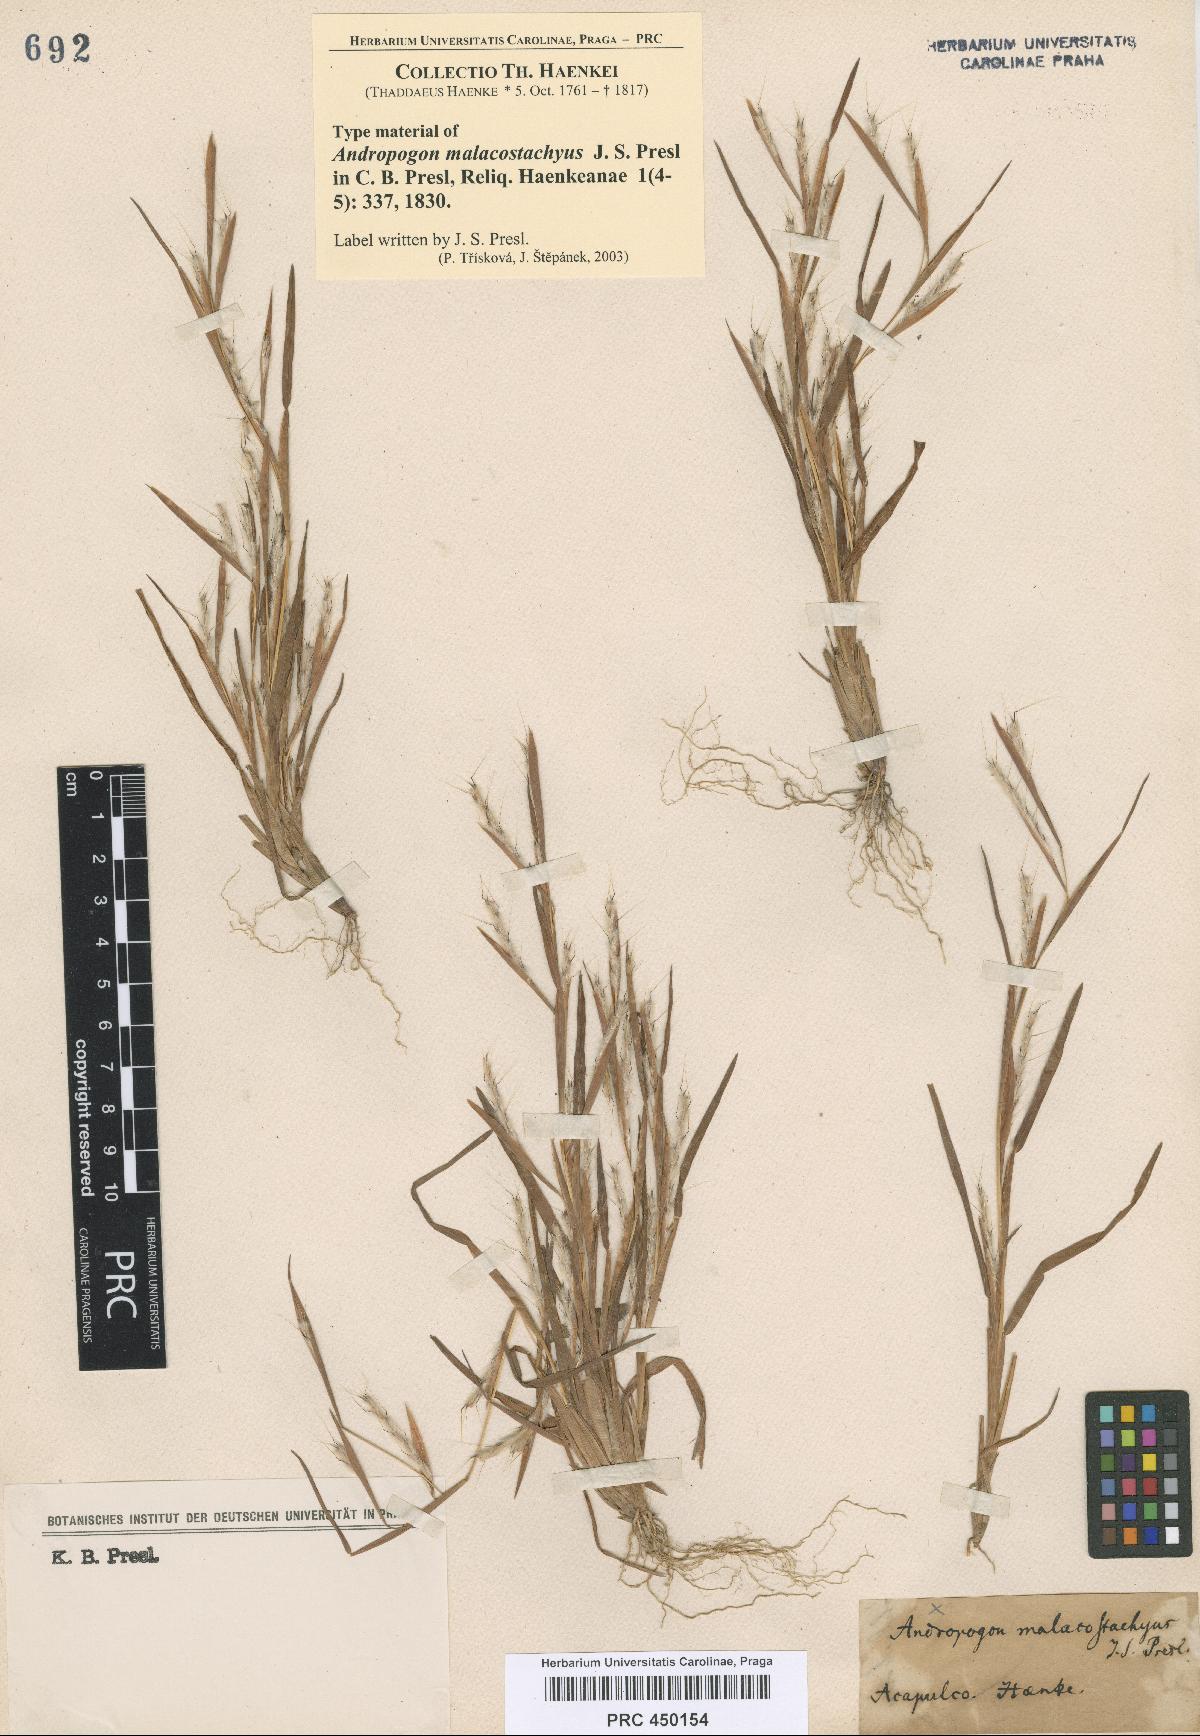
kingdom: Plantae
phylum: Tracheophyta
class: Liliopsida
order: Poales
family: Poaceae
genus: Schizachyrium
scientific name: Schizachyrium malacostachyum
